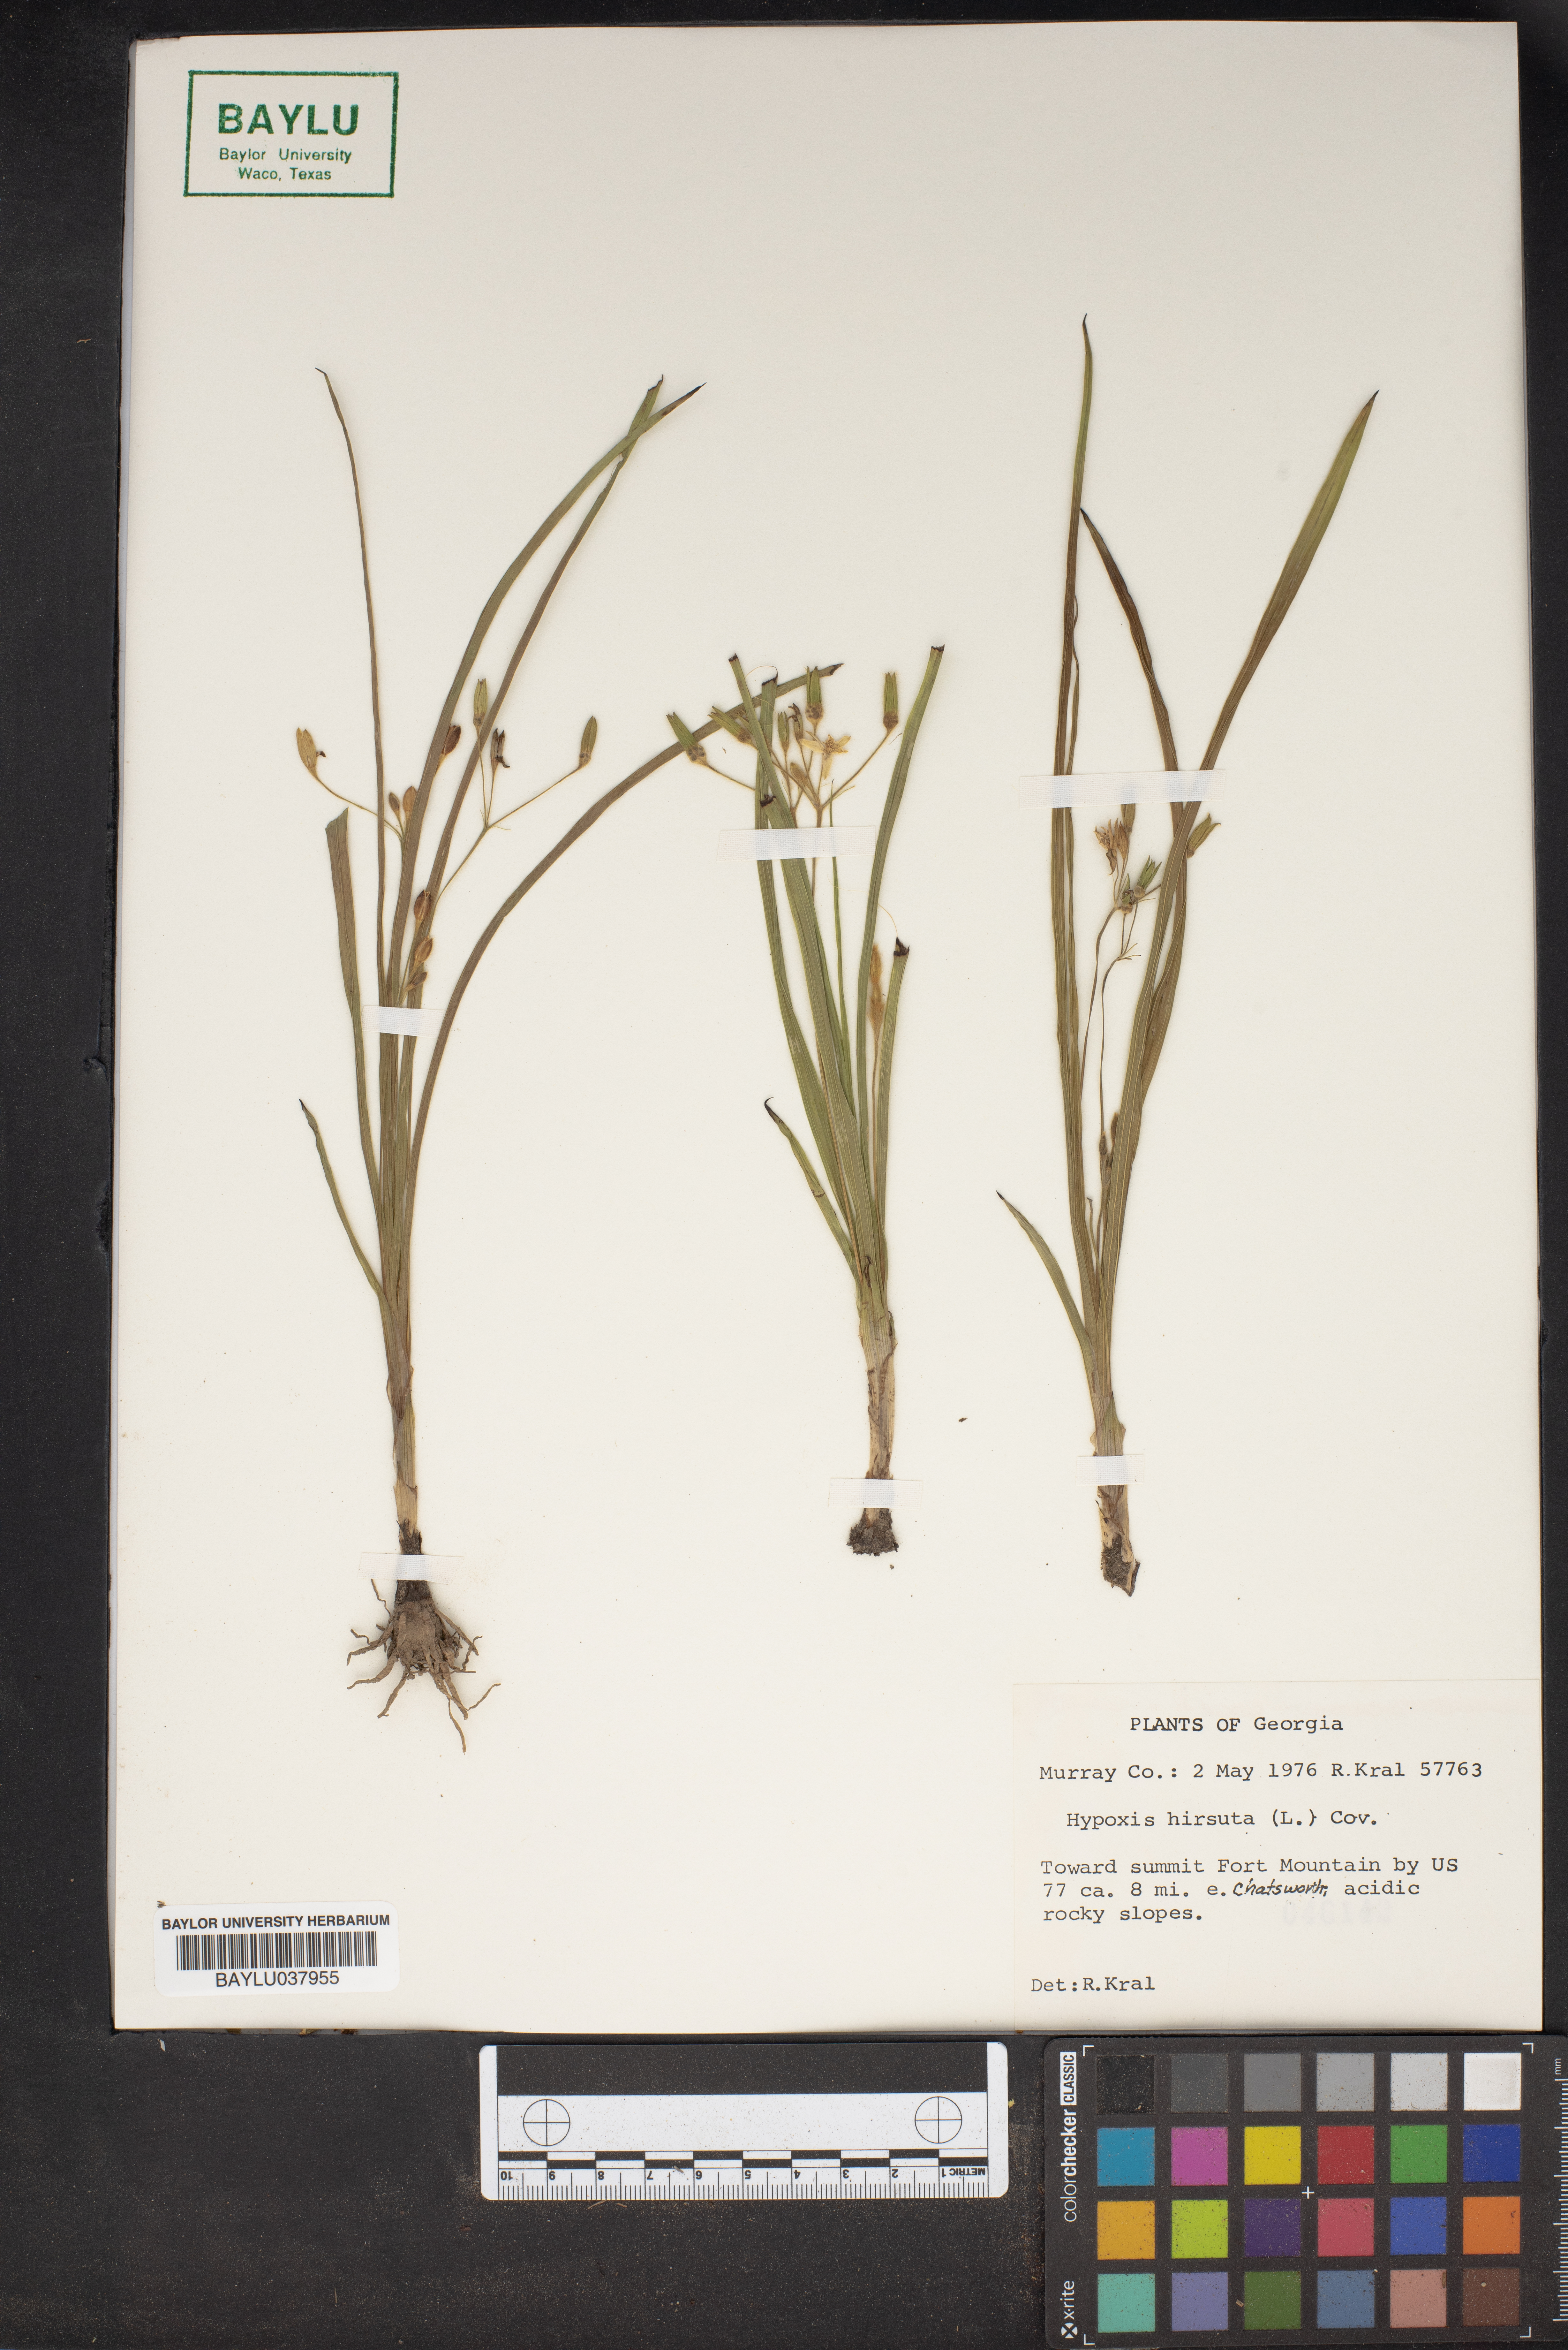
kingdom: Plantae
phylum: Tracheophyta
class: Liliopsida
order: Asparagales
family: Hypoxidaceae
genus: Hypoxis
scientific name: Hypoxis hirsuta
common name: Common goldstar
